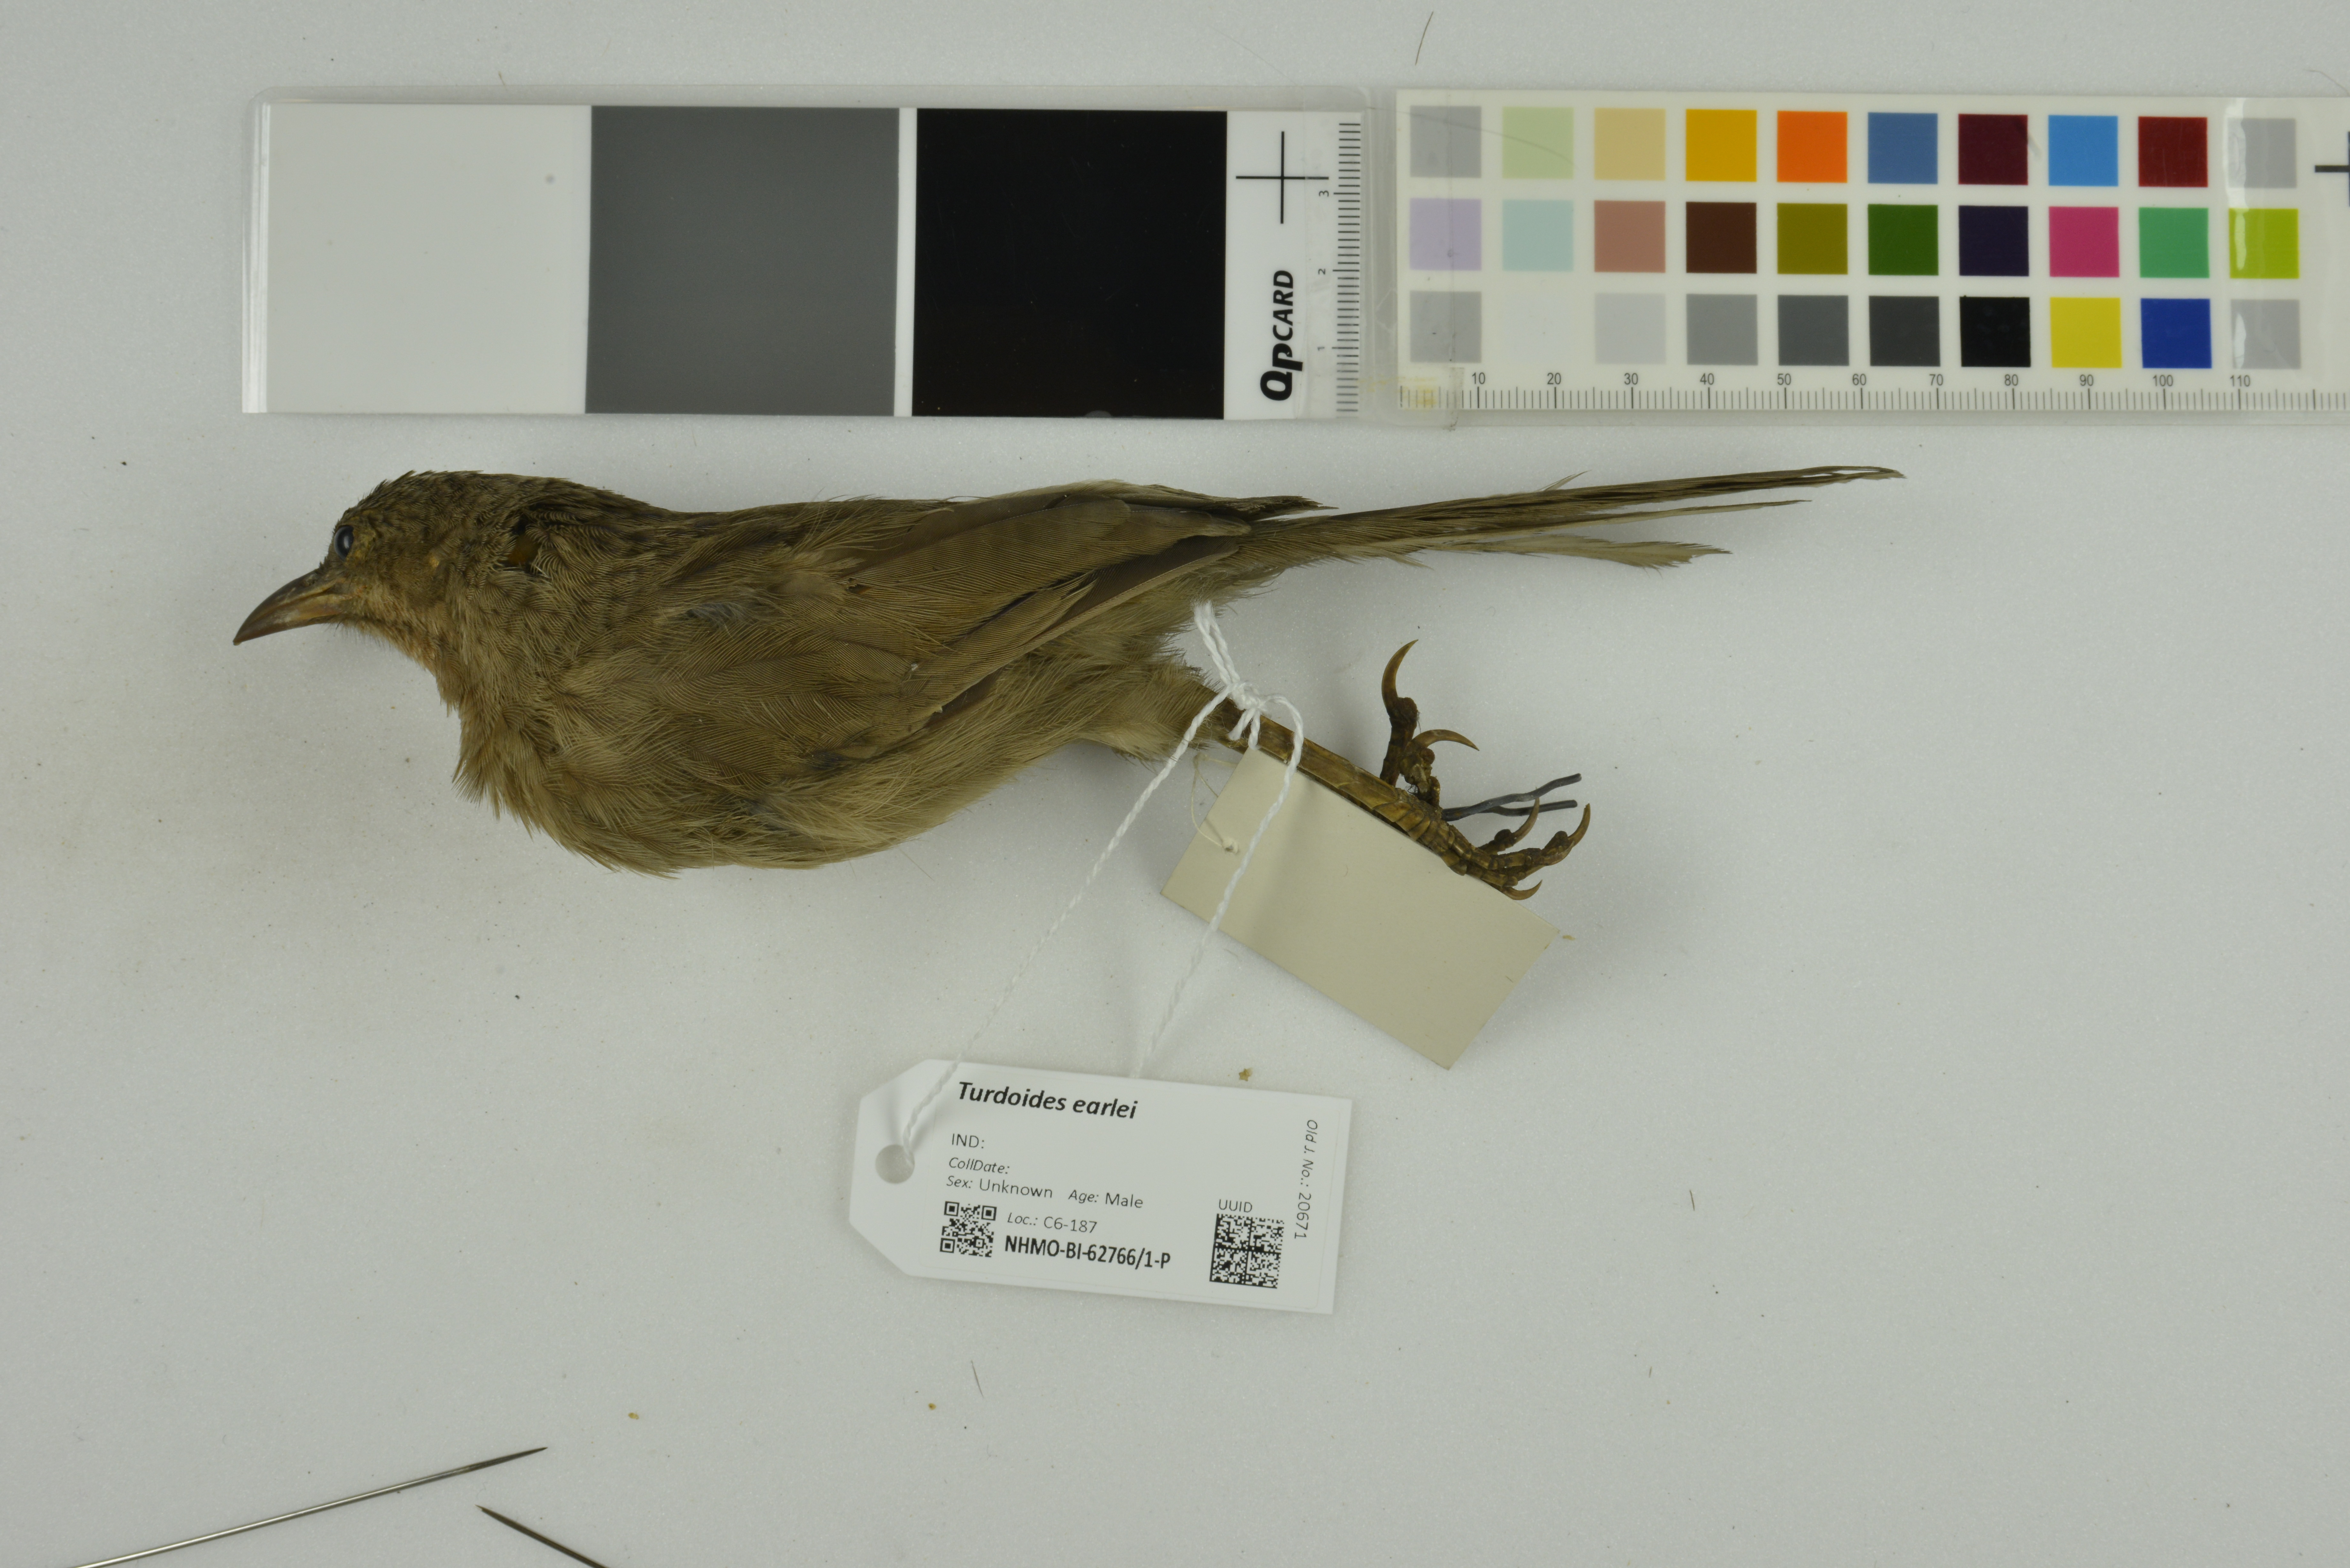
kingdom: Animalia
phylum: Chordata
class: Aves
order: Passeriformes
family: Leiothrichidae
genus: Turdoides
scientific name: Turdoides earlei
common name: Striated babbler
